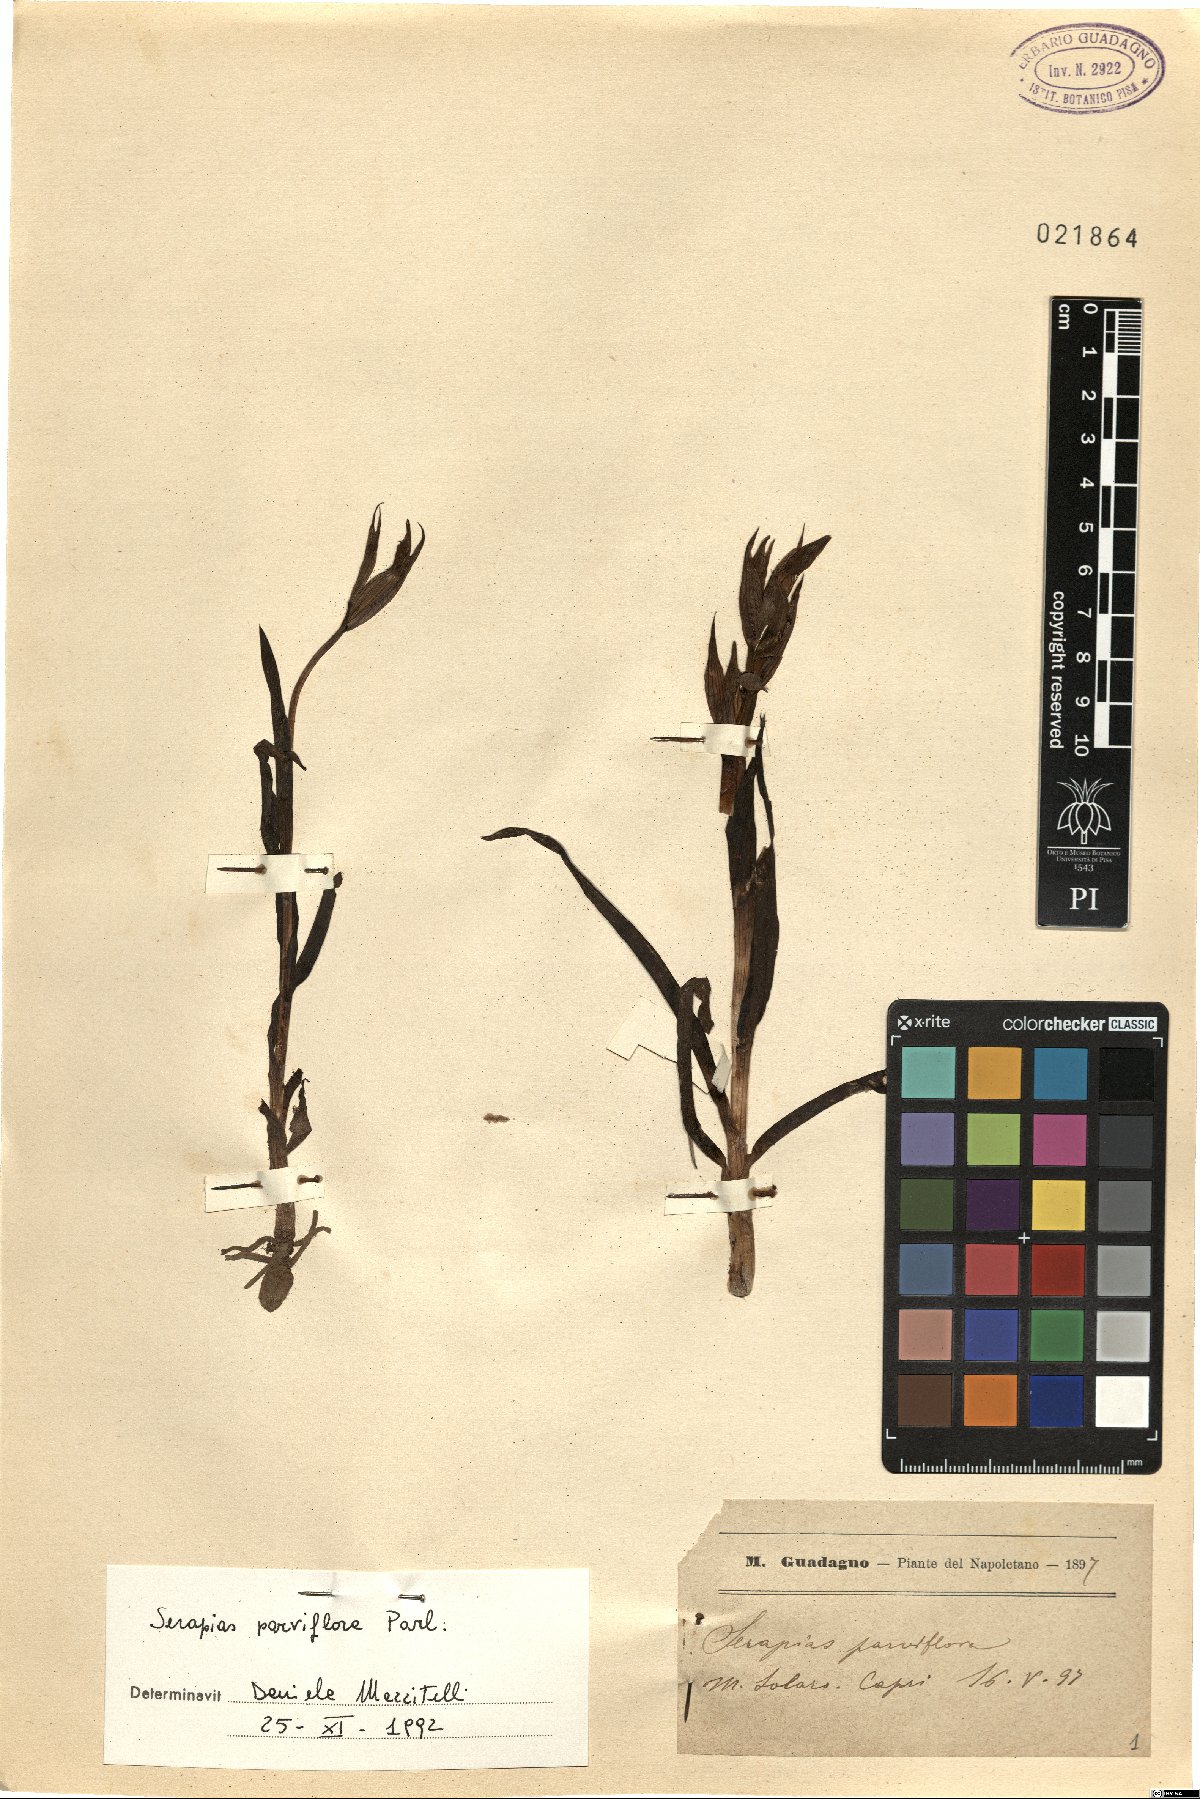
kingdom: Plantae
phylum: Tracheophyta
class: Liliopsida
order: Asparagales
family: Orchidaceae
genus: Serapias
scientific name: Serapias parviflora
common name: Small-flowered tongue-orchid
